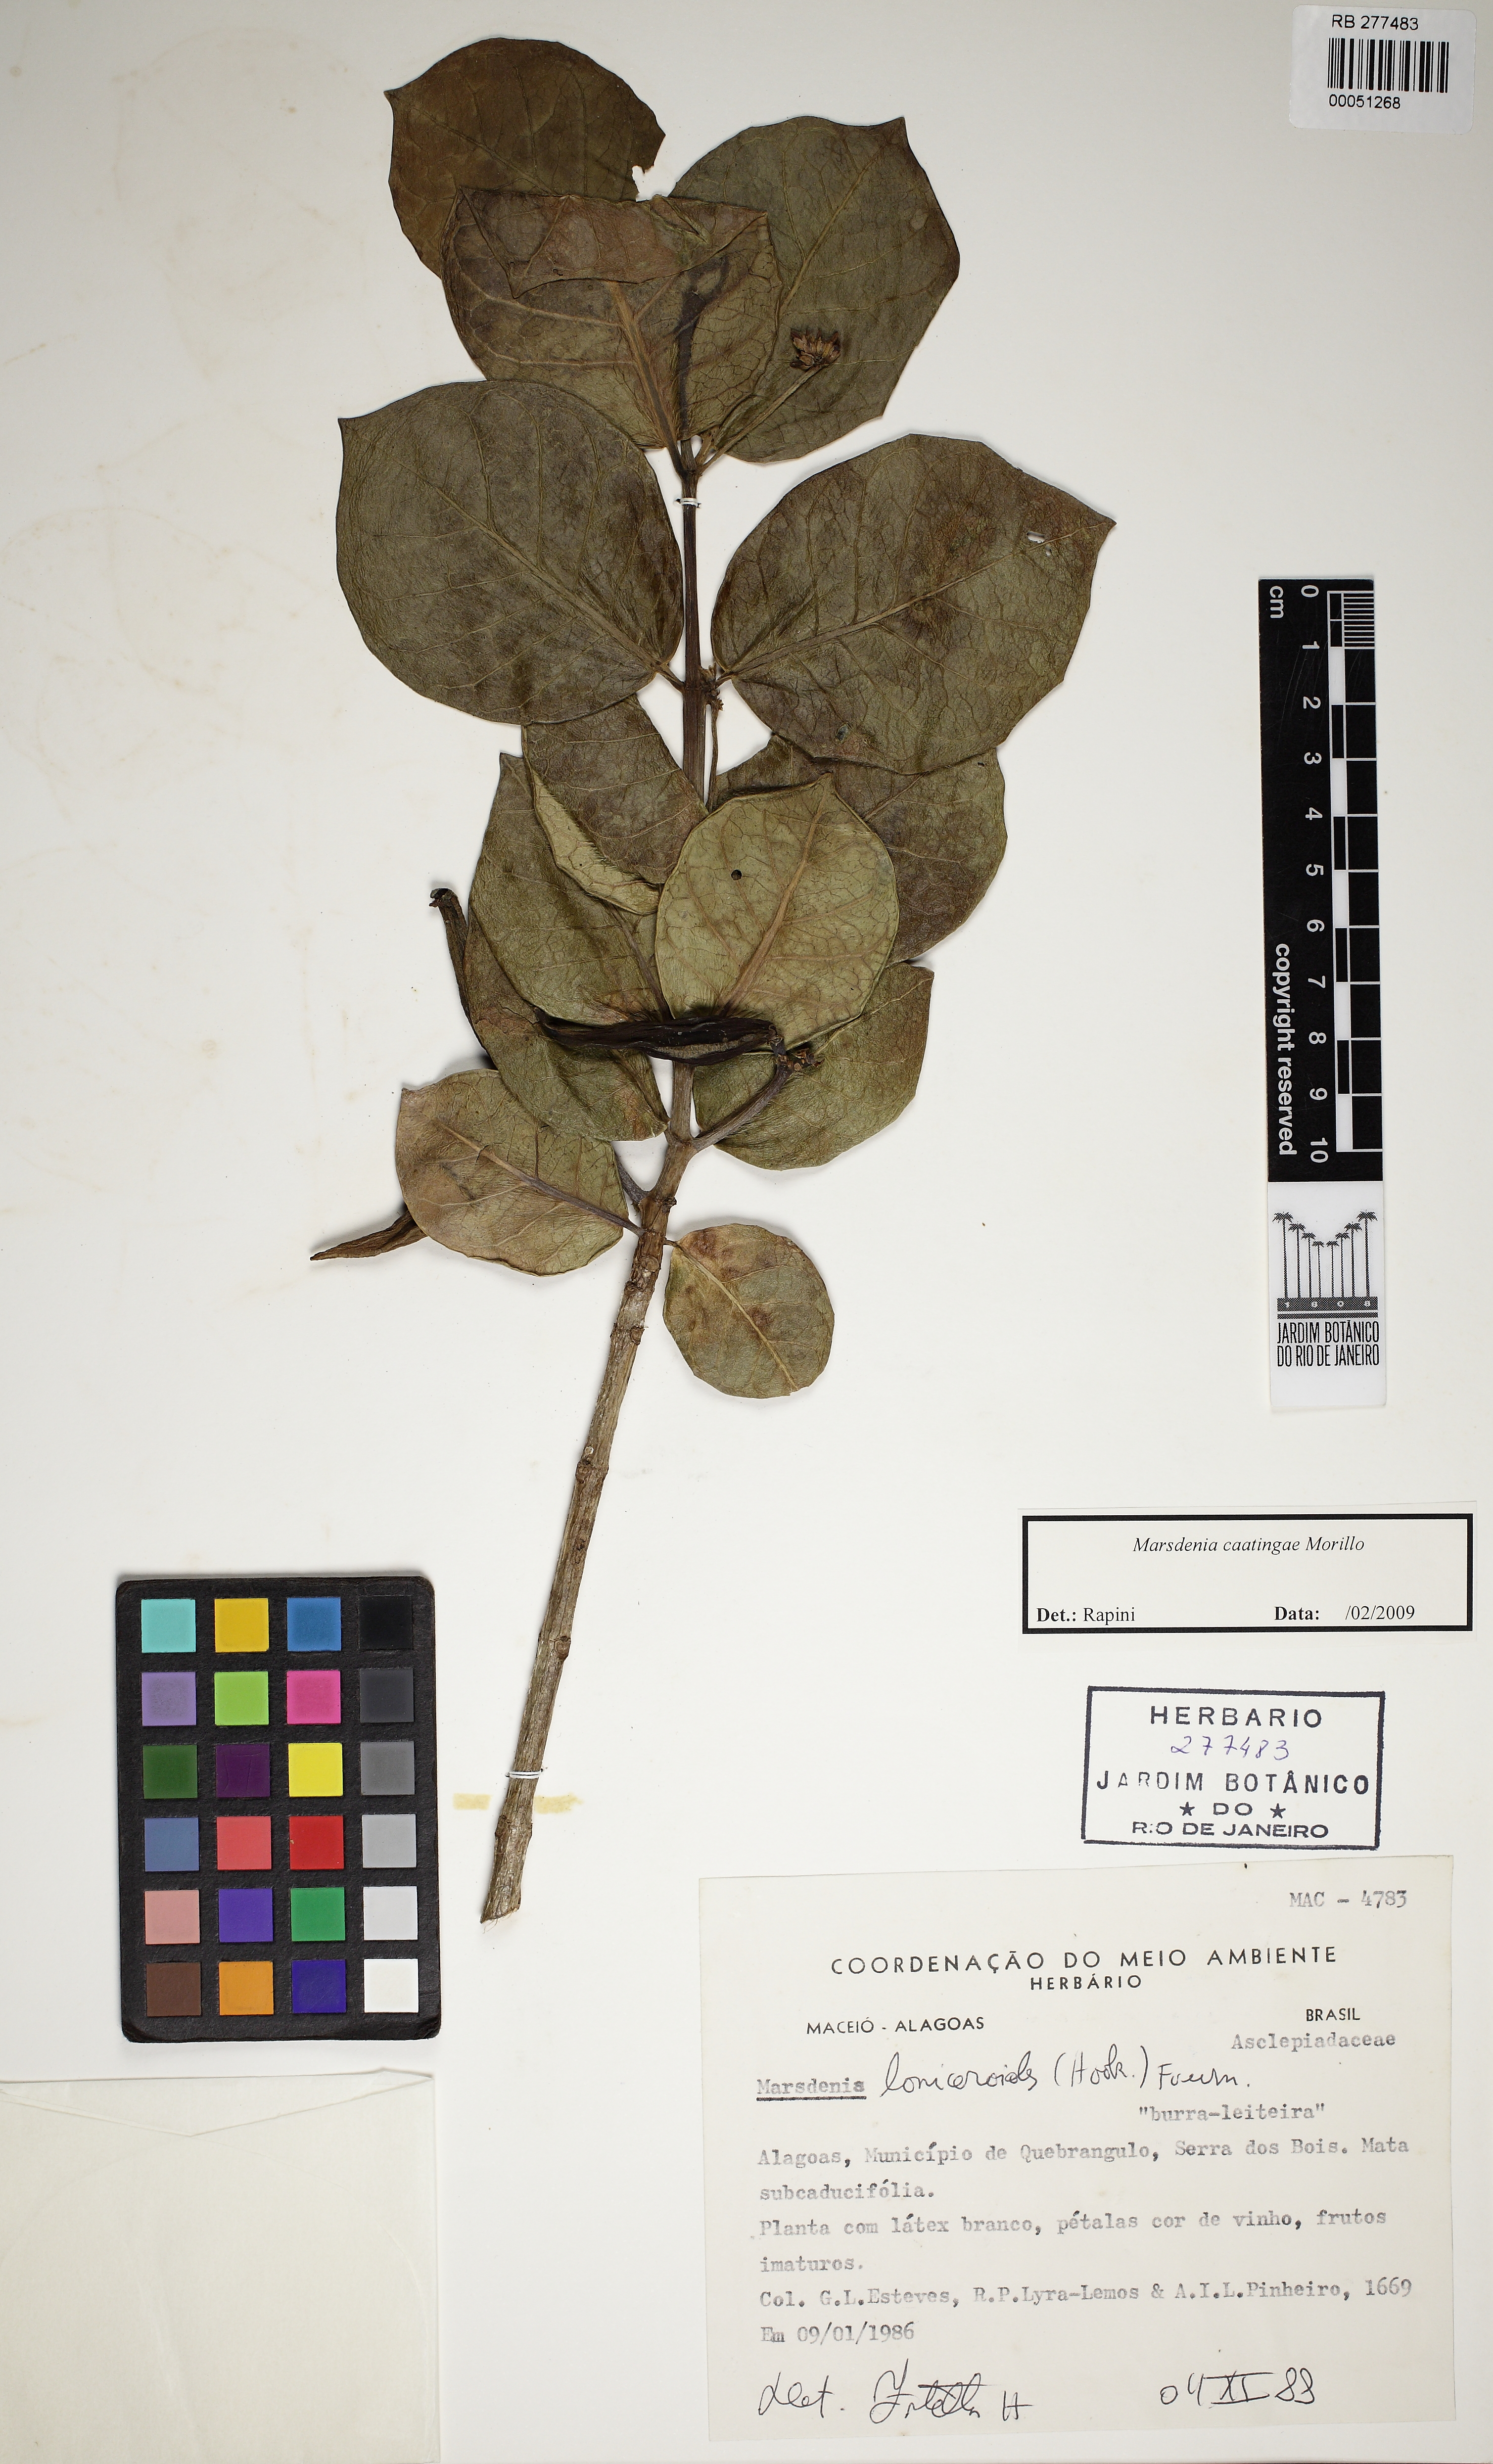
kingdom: Plantae
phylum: Tracheophyta
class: Magnoliopsida
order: Gentianales
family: Apocynaceae
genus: Ruehssia
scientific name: Ruehssia caatingae
